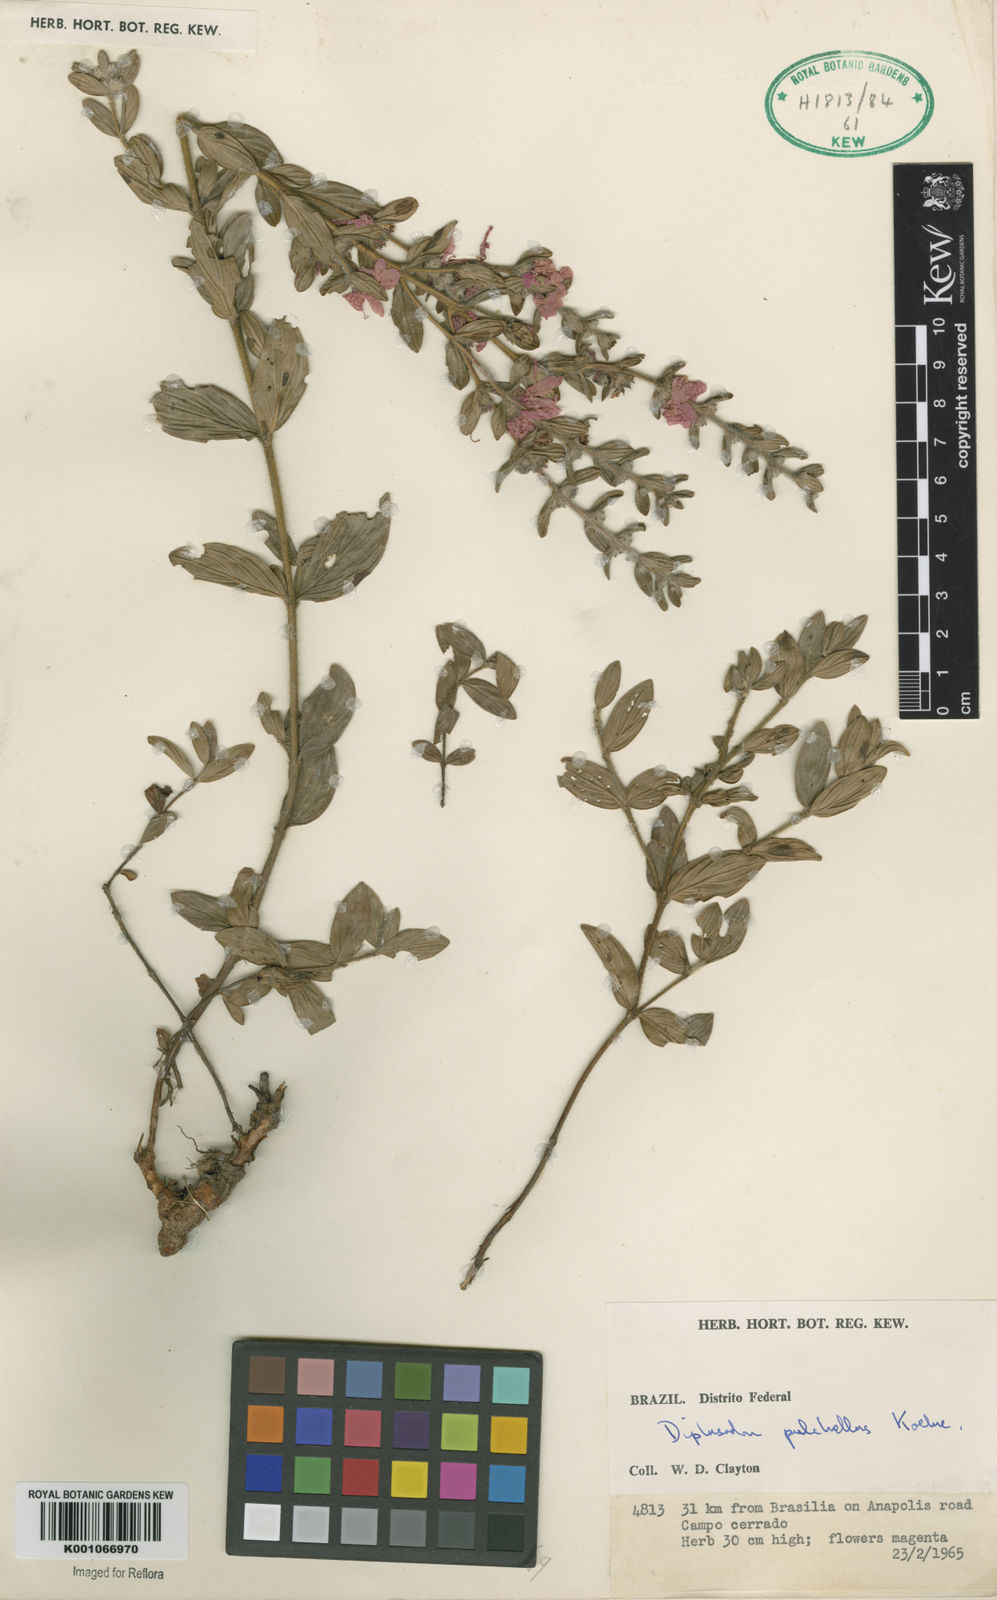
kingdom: Plantae
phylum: Tracheophyta
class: Magnoliopsida
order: Myrtales
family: Lythraceae
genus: Diplusodon
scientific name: Diplusodon villosus
